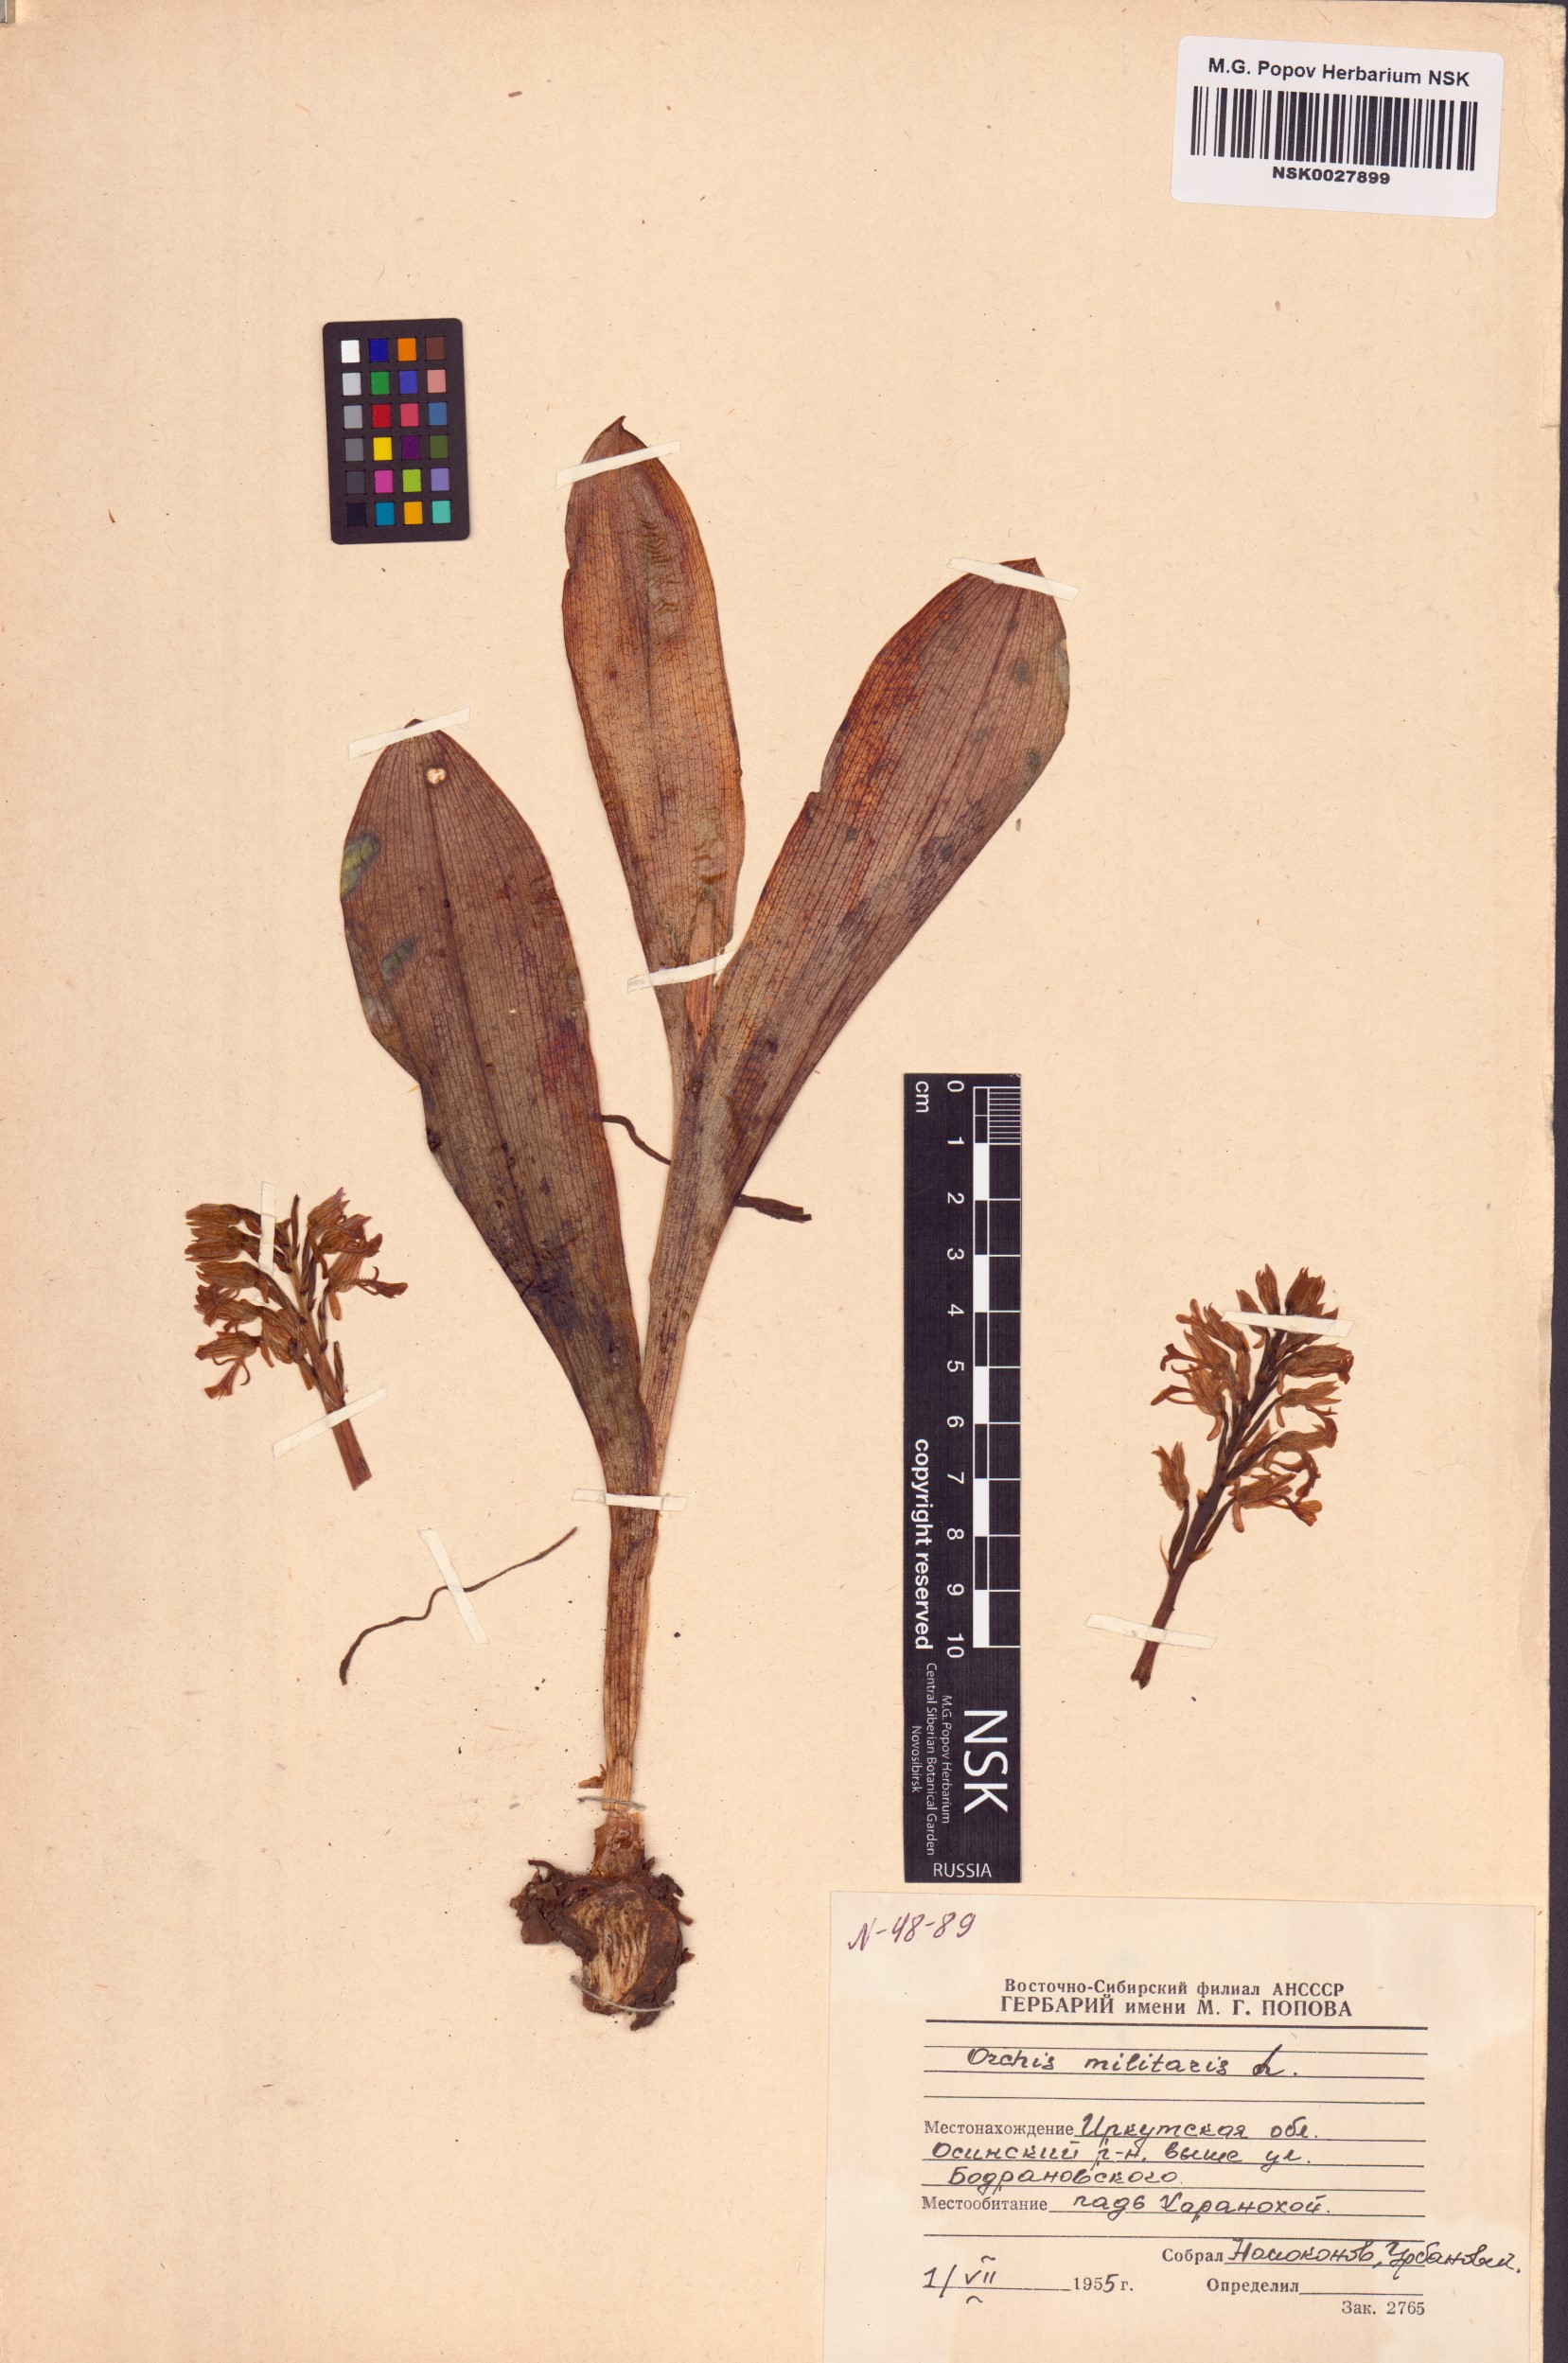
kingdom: Plantae
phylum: Tracheophyta
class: Liliopsida
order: Asparagales
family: Orchidaceae
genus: Orchis
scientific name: Orchis militaris
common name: Military orchid
